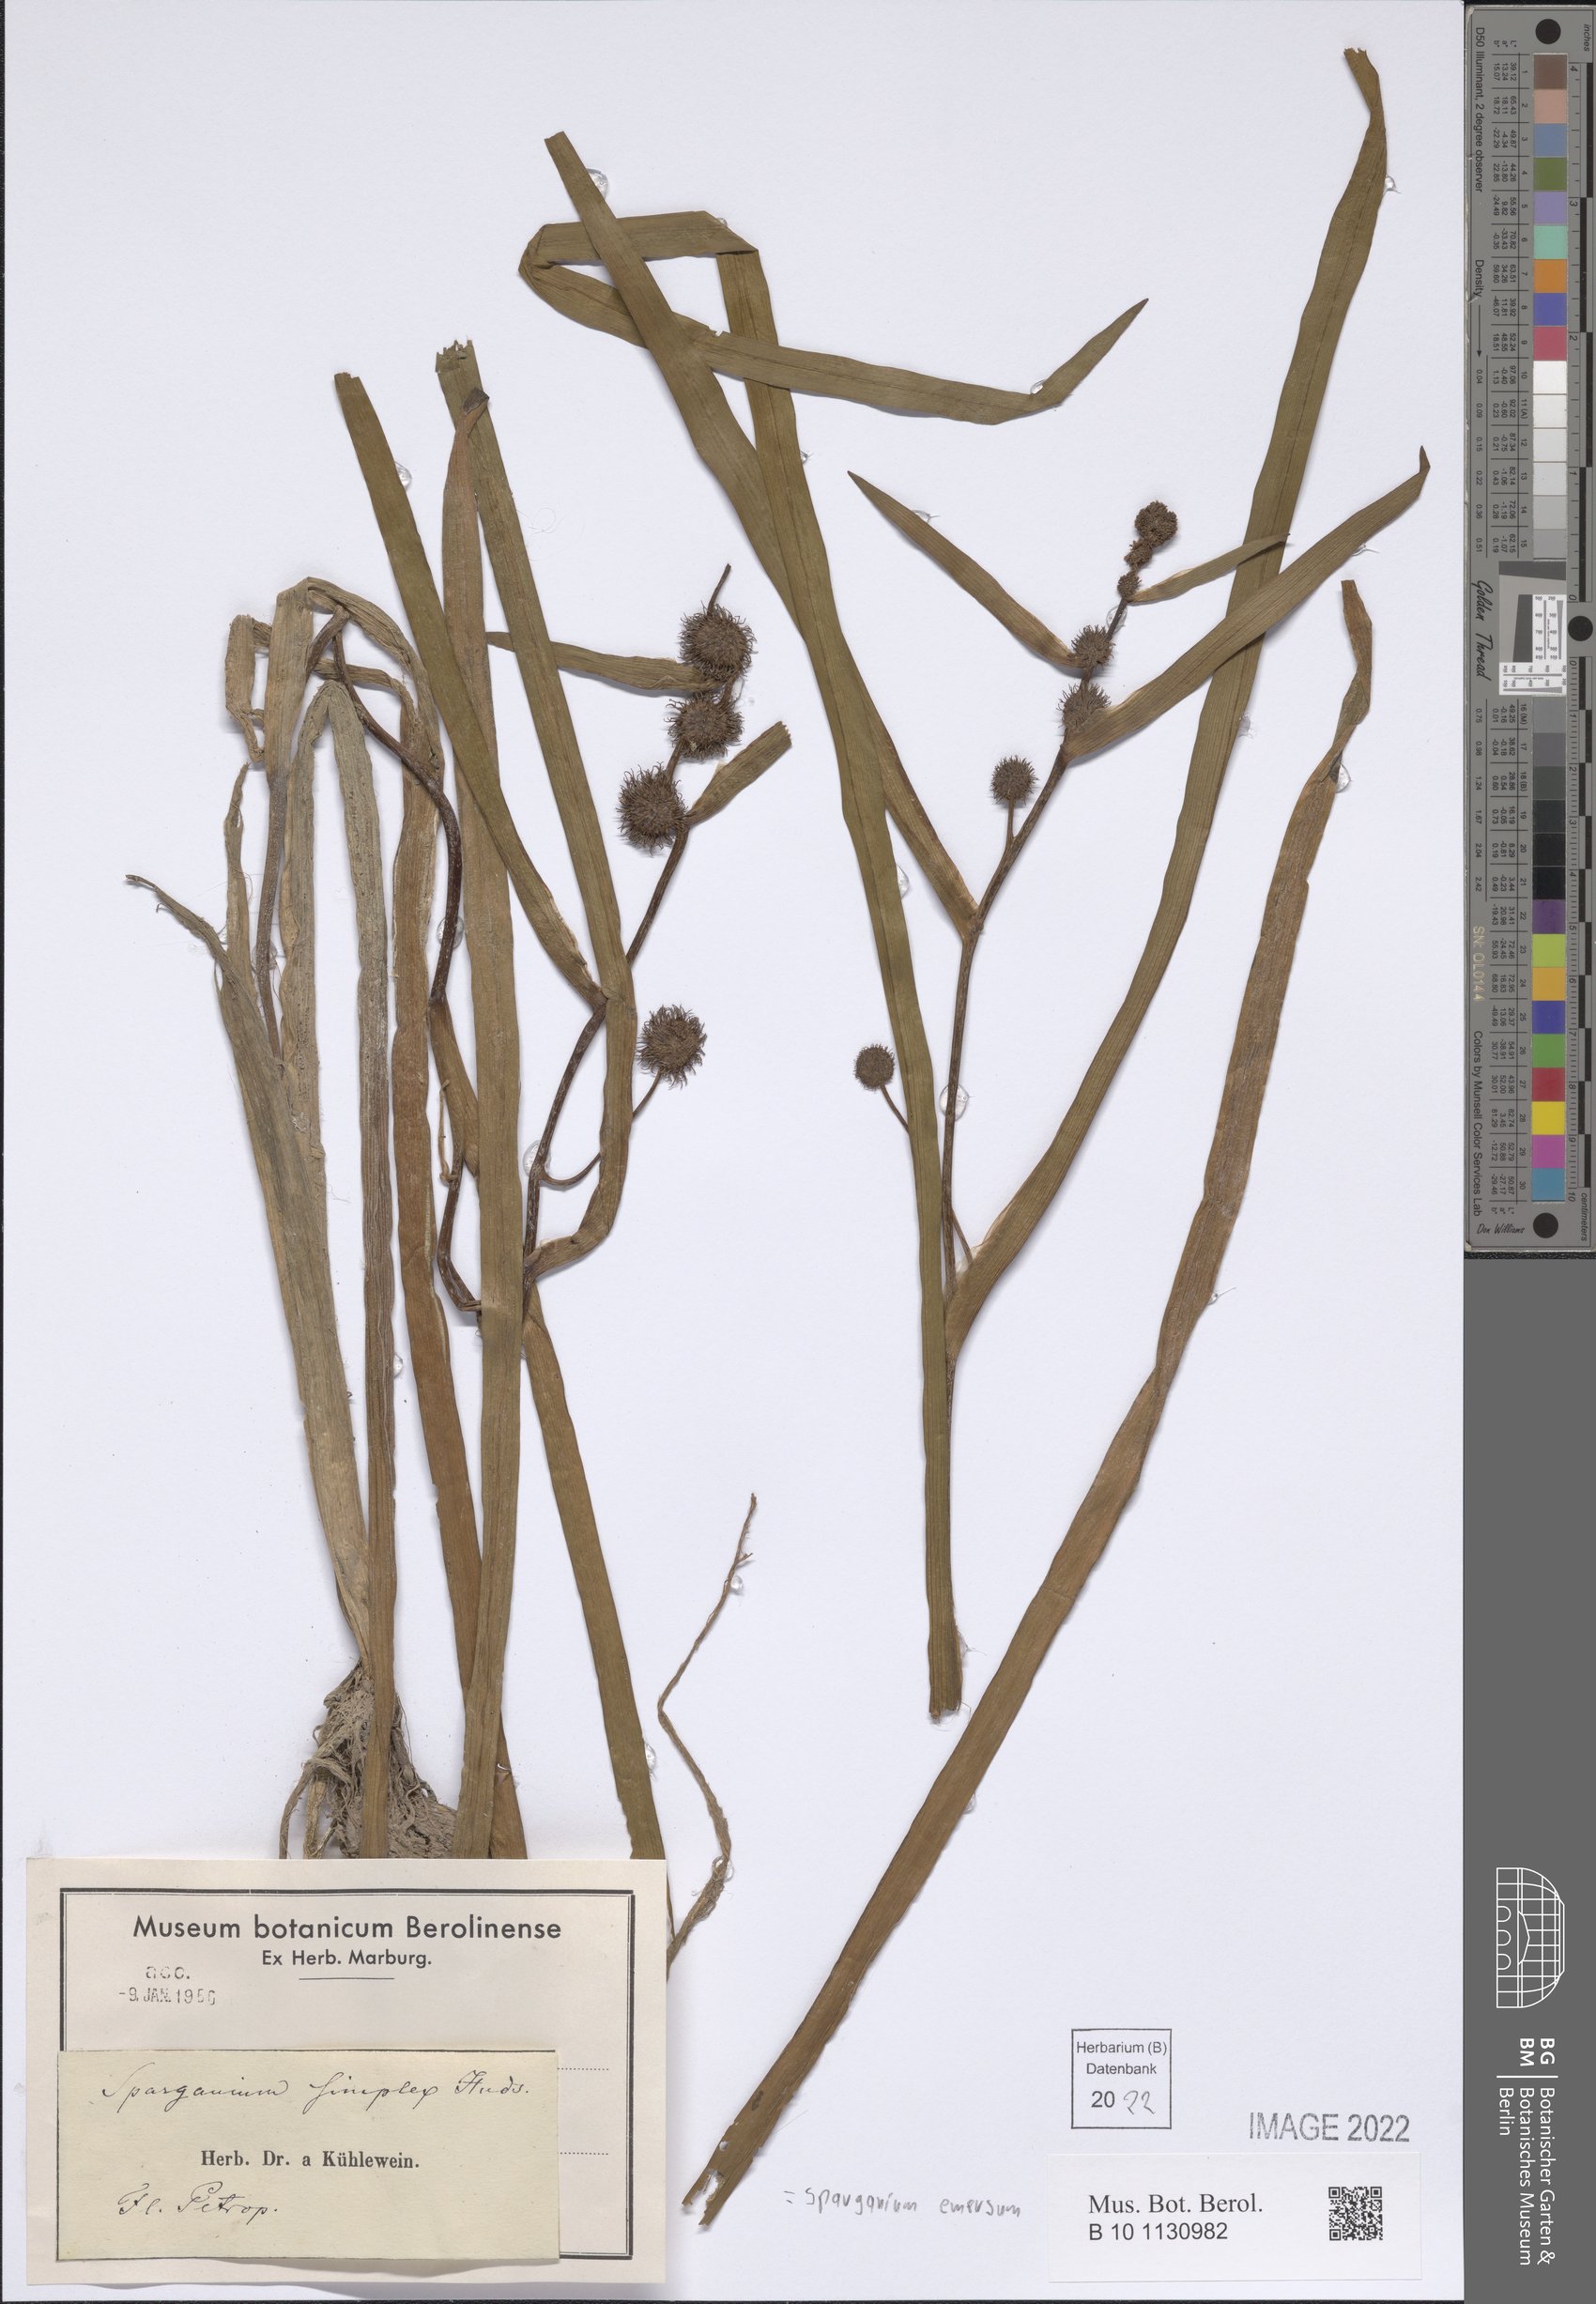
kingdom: Plantae
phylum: Tracheophyta
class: Liliopsida
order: Poales
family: Typhaceae
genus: Sparganium
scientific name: Sparganium emersum
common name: Unbranched bur-reed
